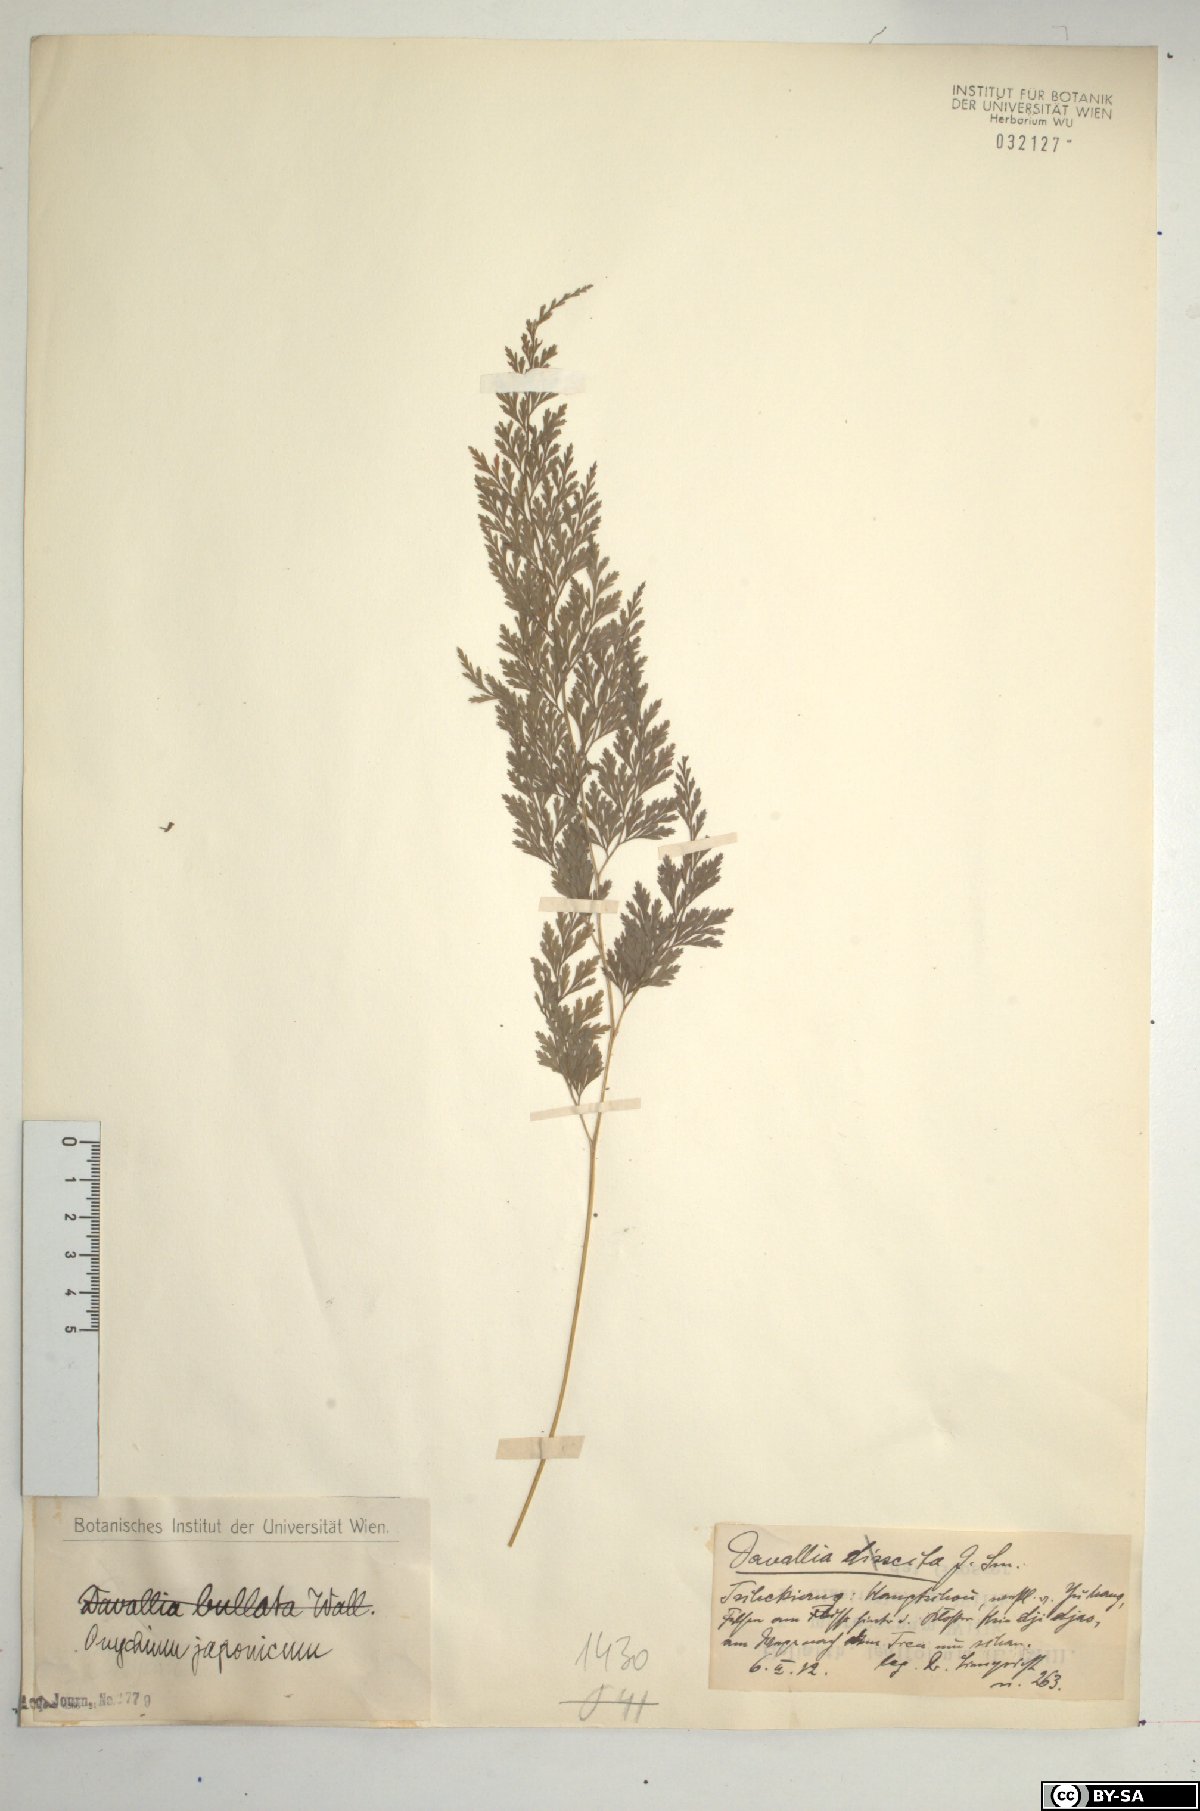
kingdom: Plantae
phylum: Tracheophyta
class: Polypodiopsida
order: Polypodiales
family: Pteridaceae
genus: Onychium
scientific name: Onychium japonicum
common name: Carrot fern
